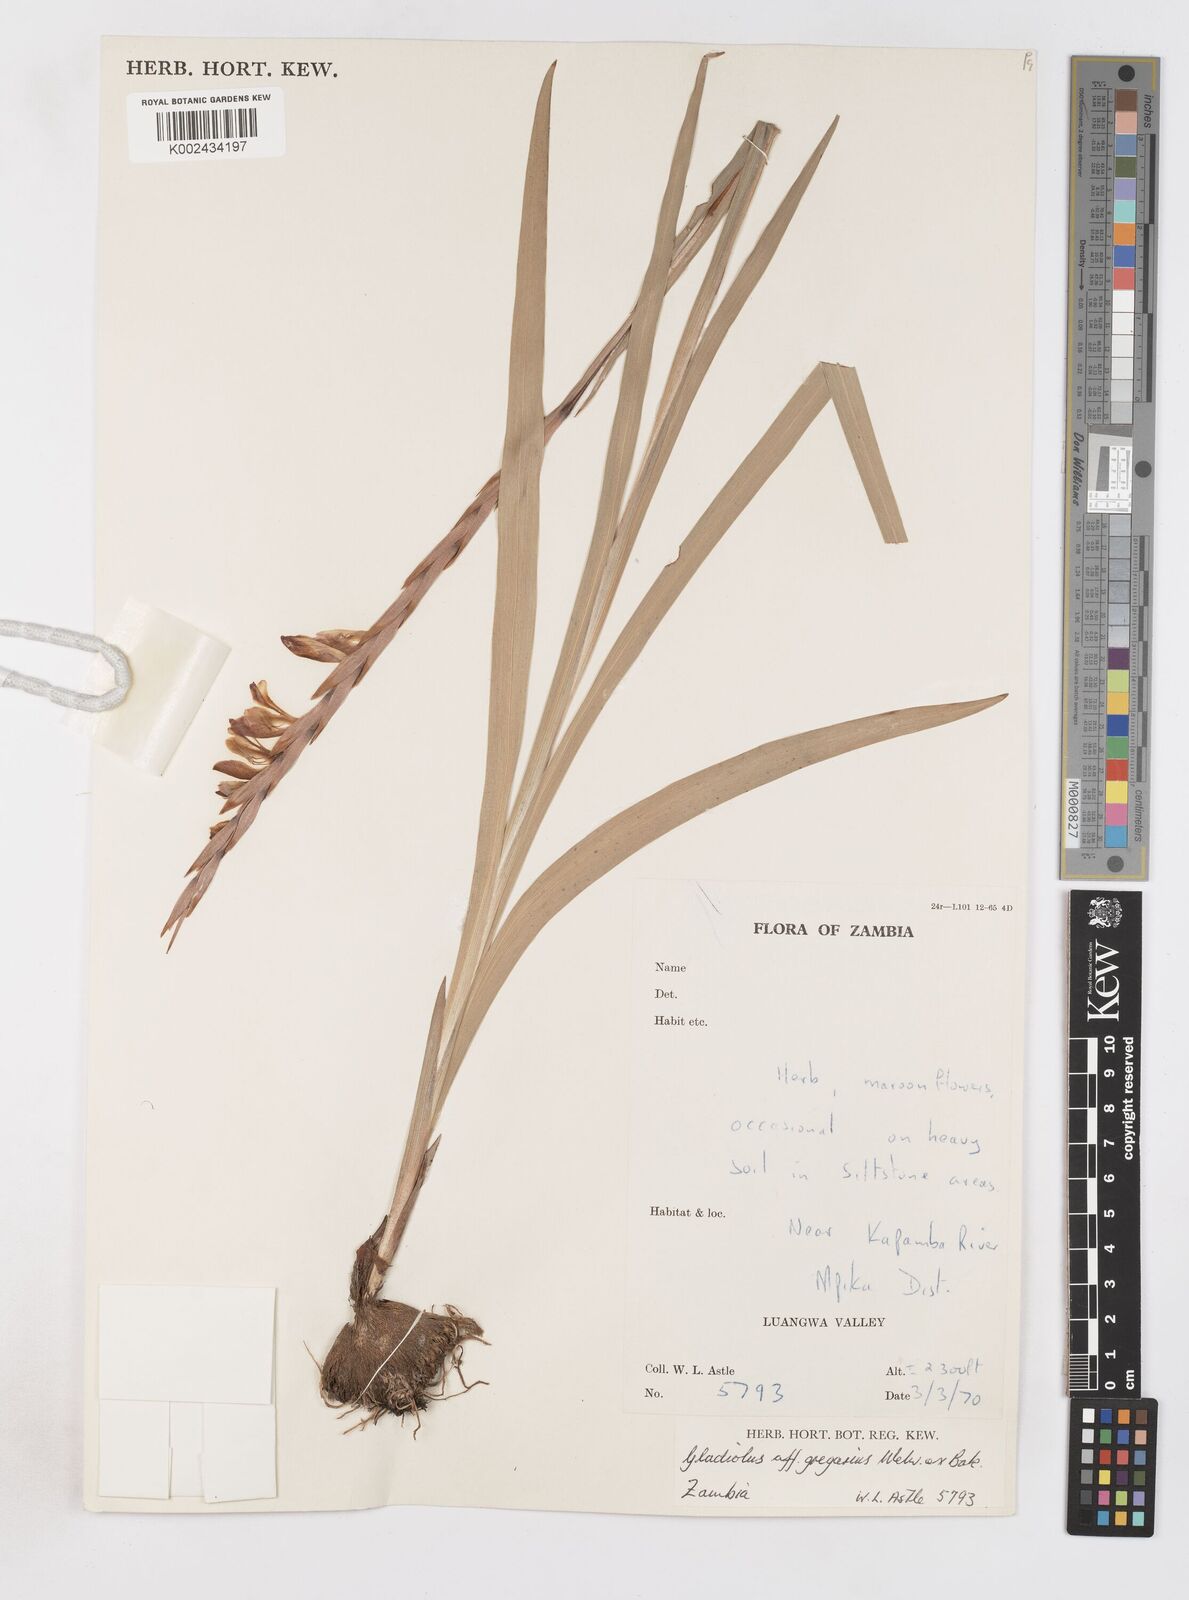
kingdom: Plantae
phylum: Tracheophyta
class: Liliopsida
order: Asparagales
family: Iridaceae
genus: Gladiolus
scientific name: Gladiolus gregarius
